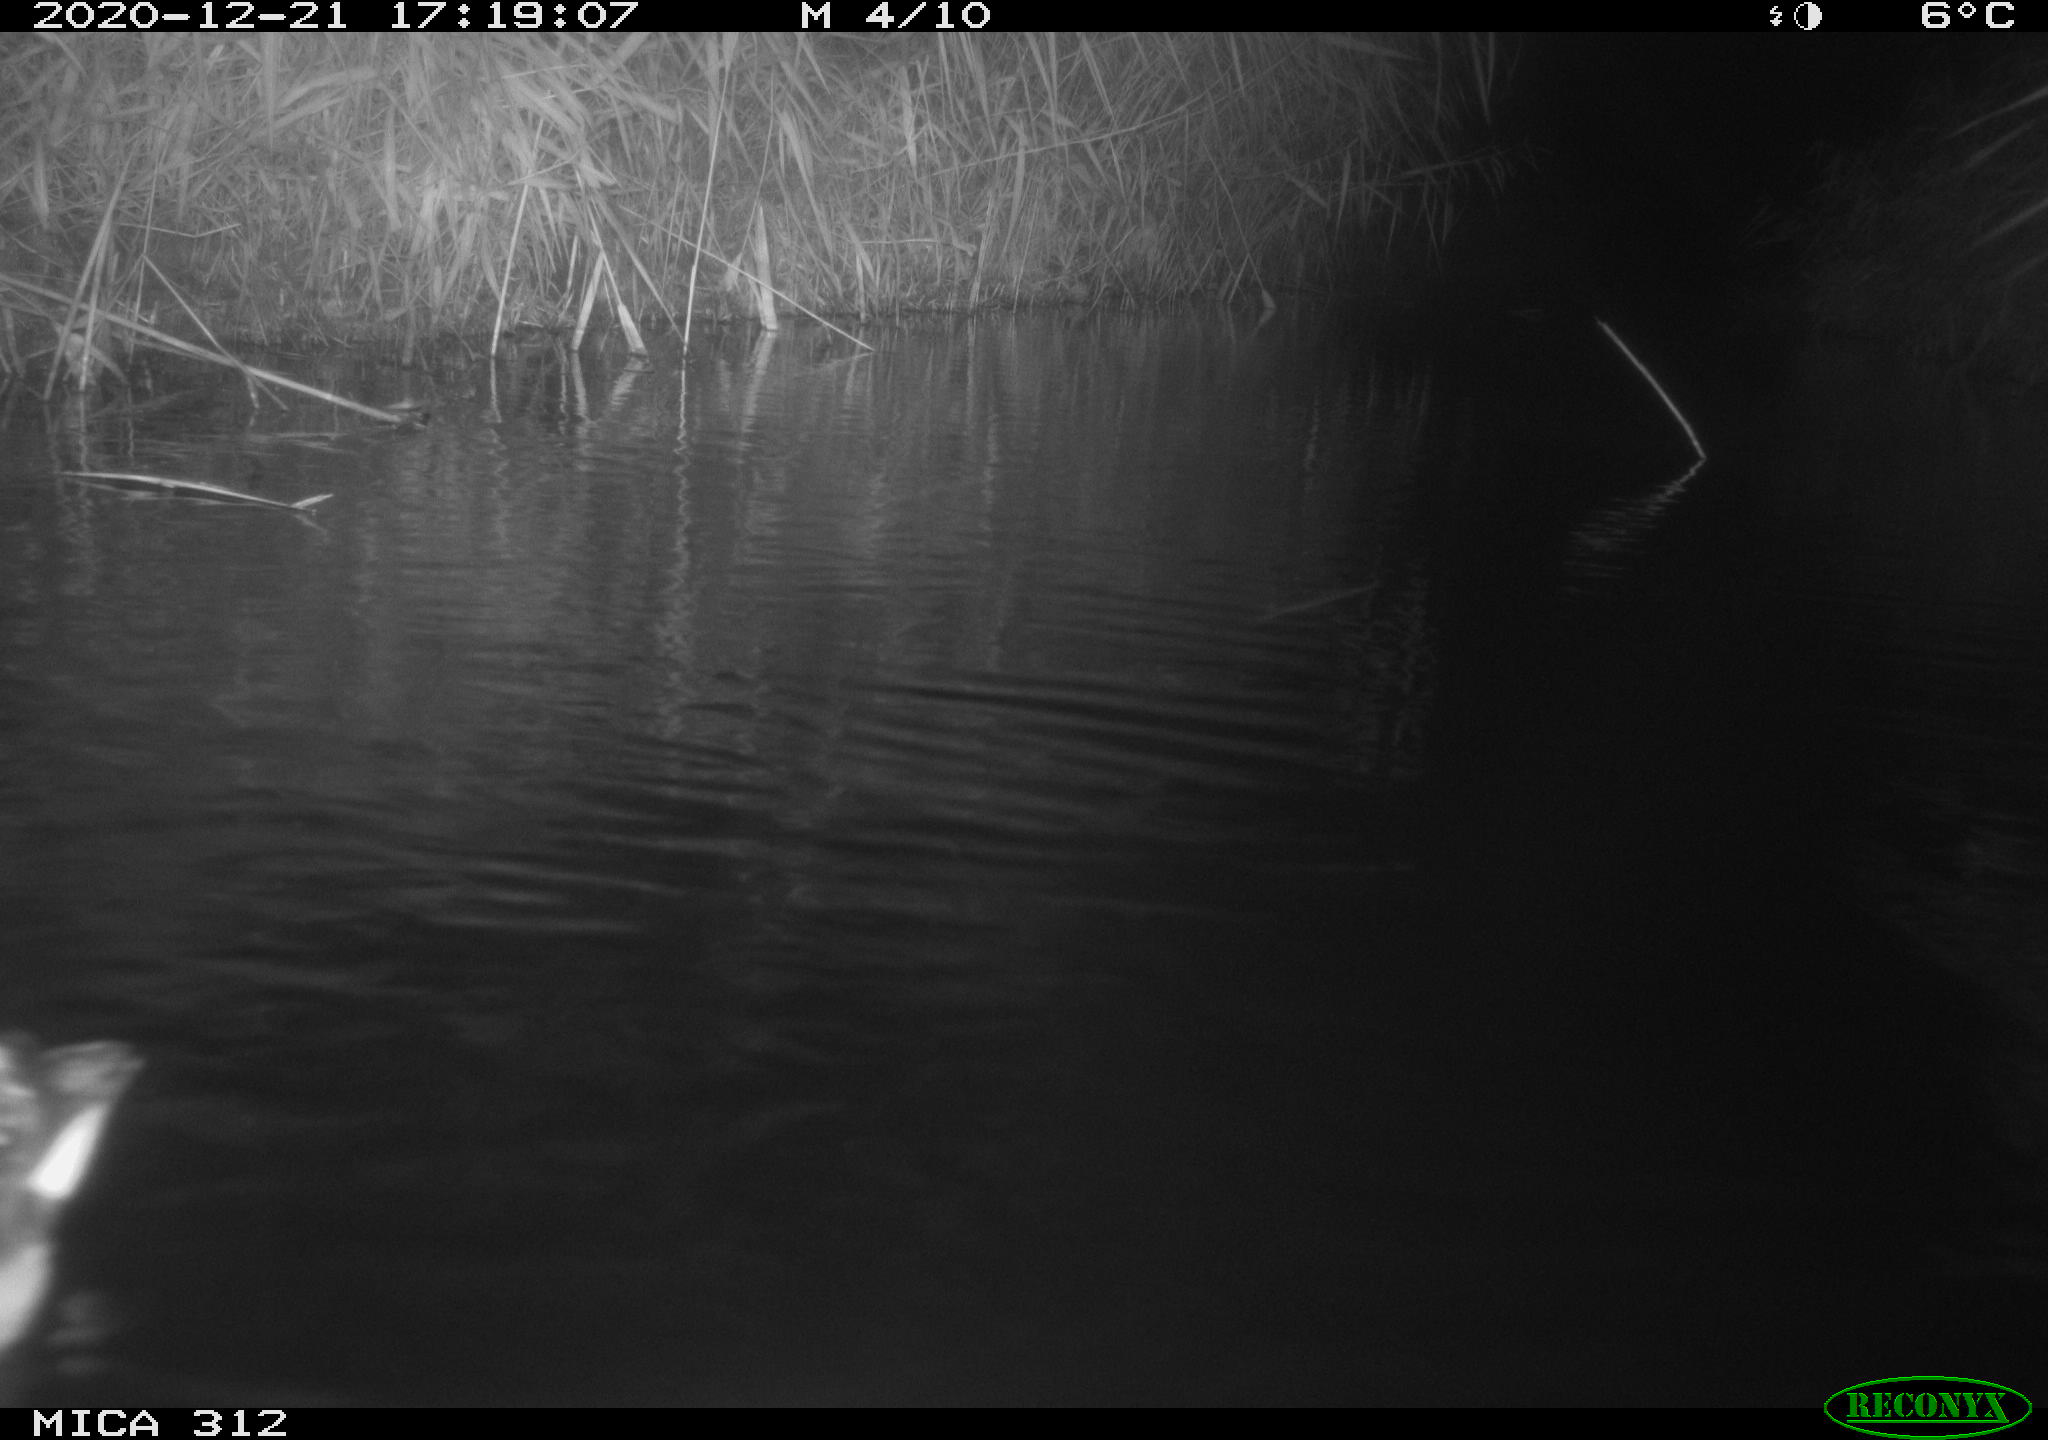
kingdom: Animalia
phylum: Chordata
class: Aves
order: Gruiformes
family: Rallidae
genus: Gallinula
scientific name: Gallinula chloropus
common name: Common moorhen
